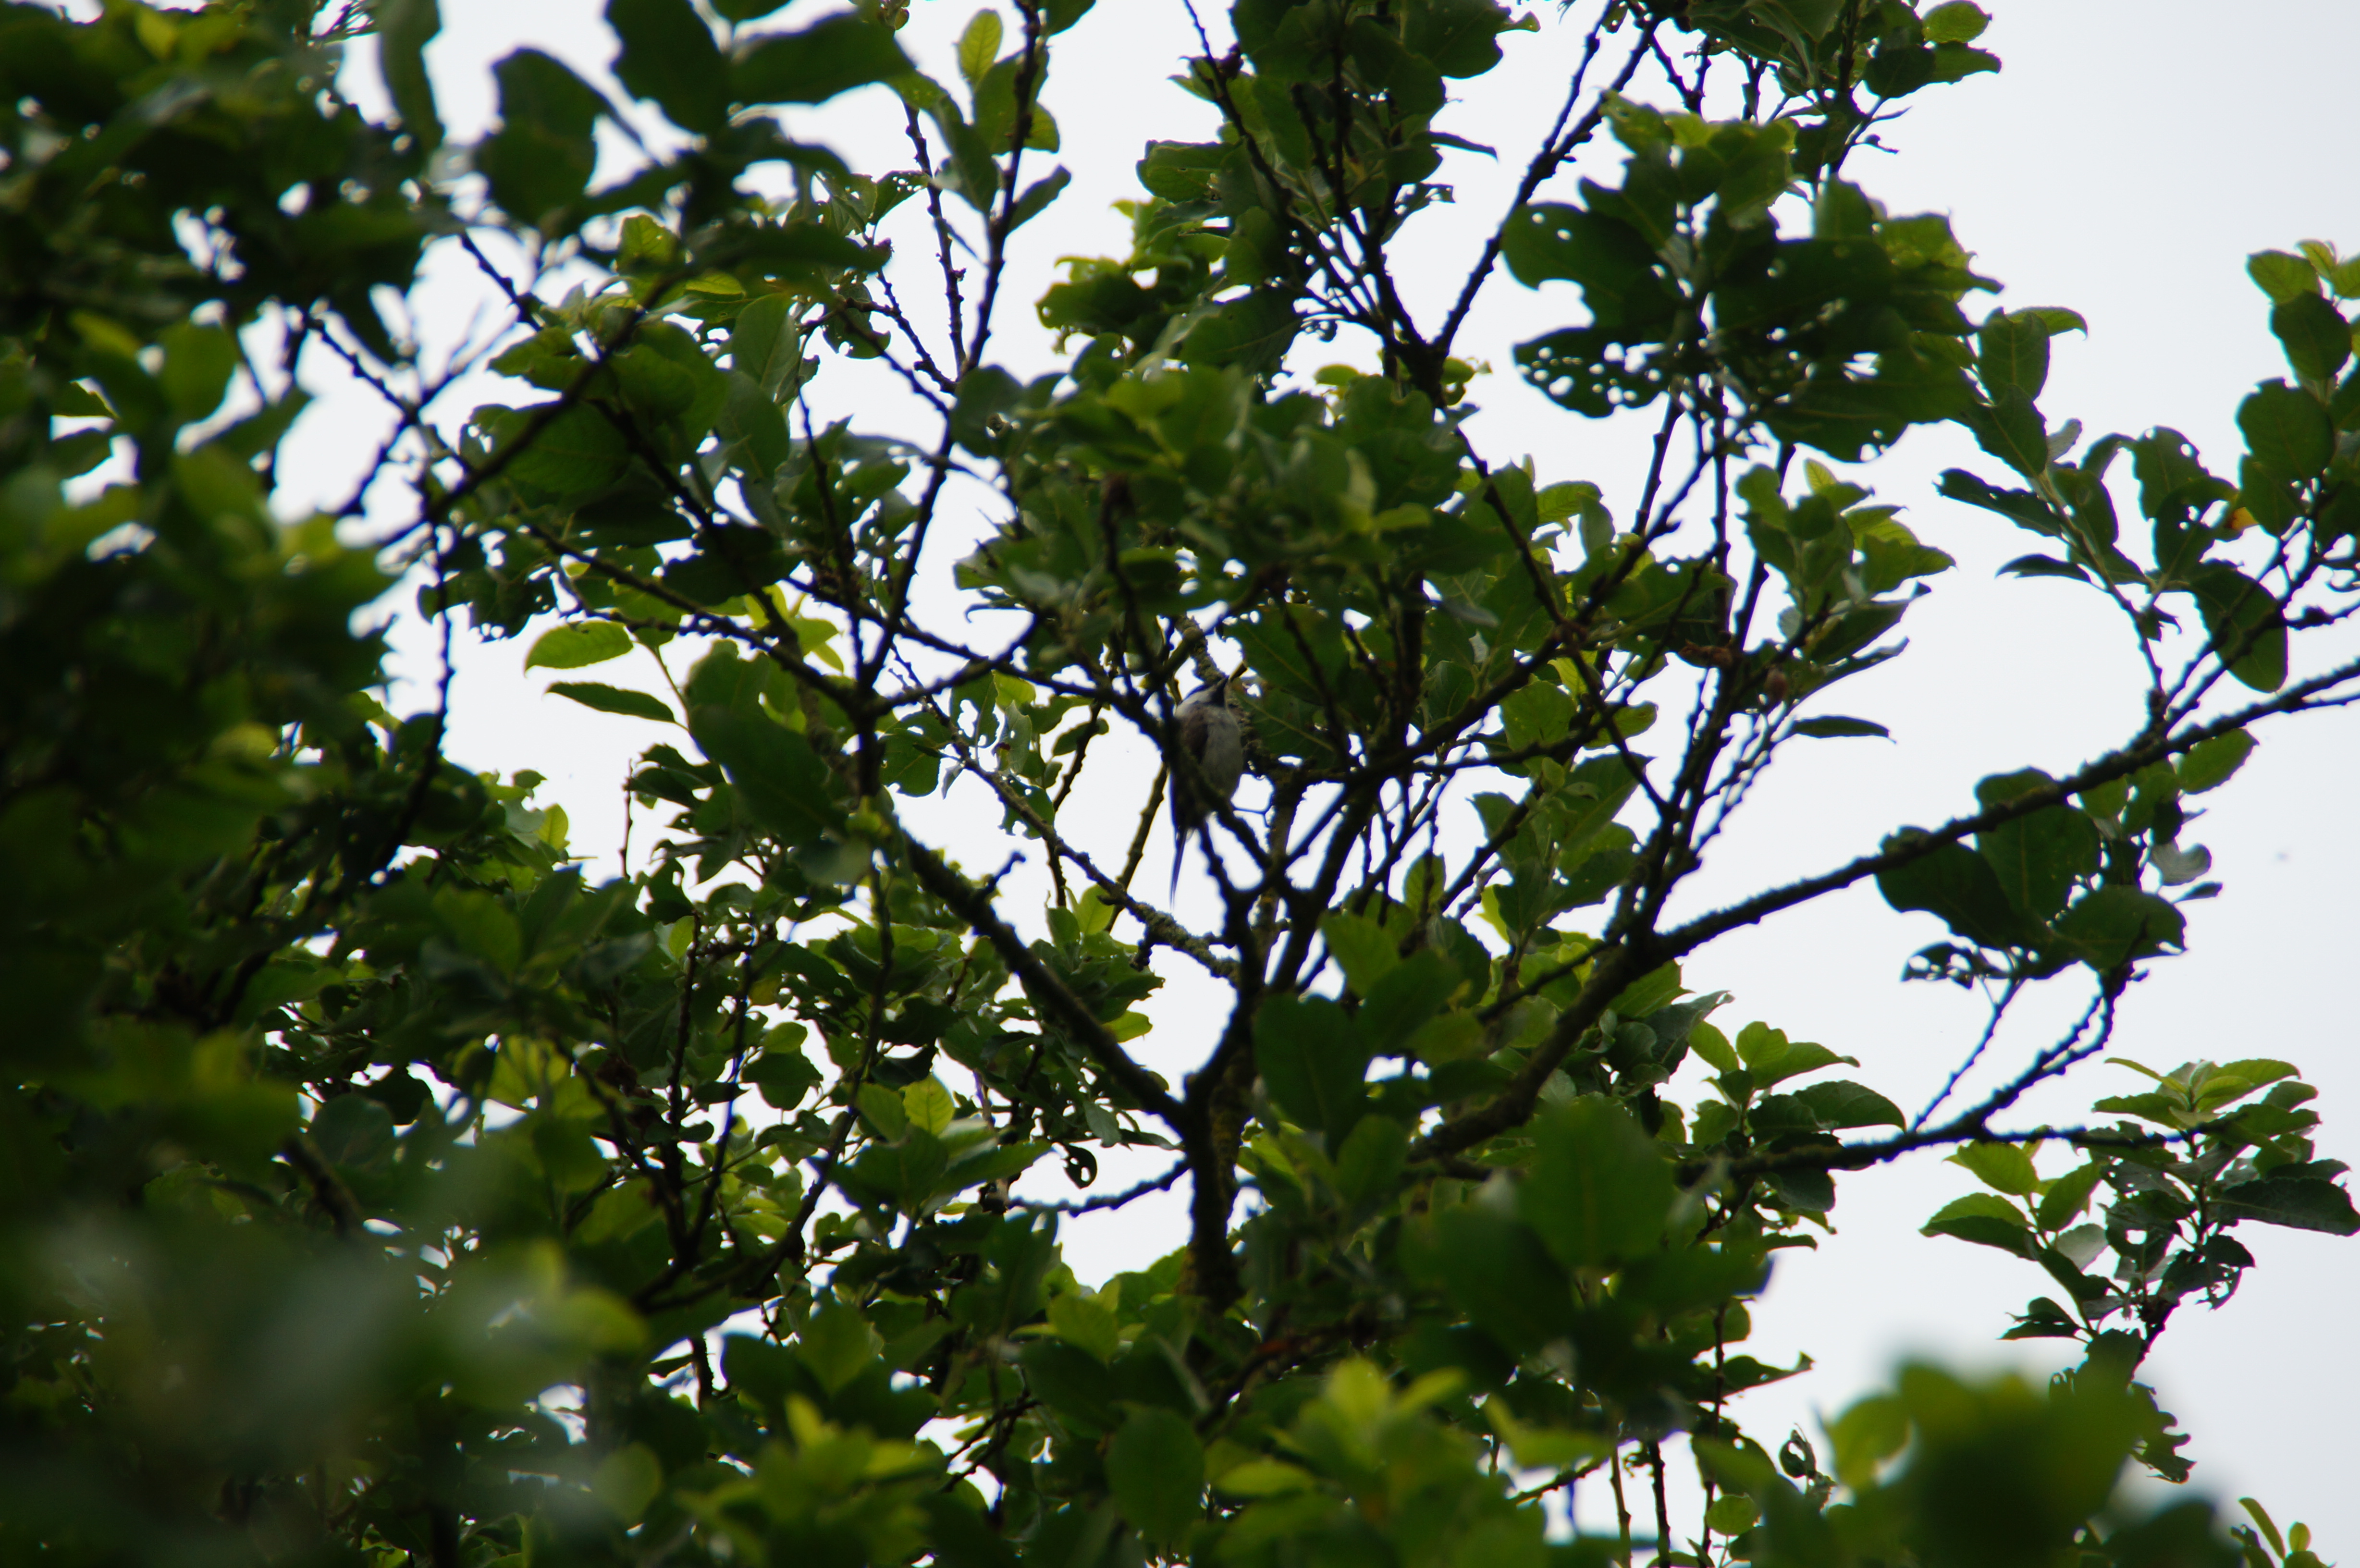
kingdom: Animalia
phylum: Chordata
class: Aves
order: Passeriformes
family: Paridae
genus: Poecile
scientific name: Poecile palustris
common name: Sumpmejse
